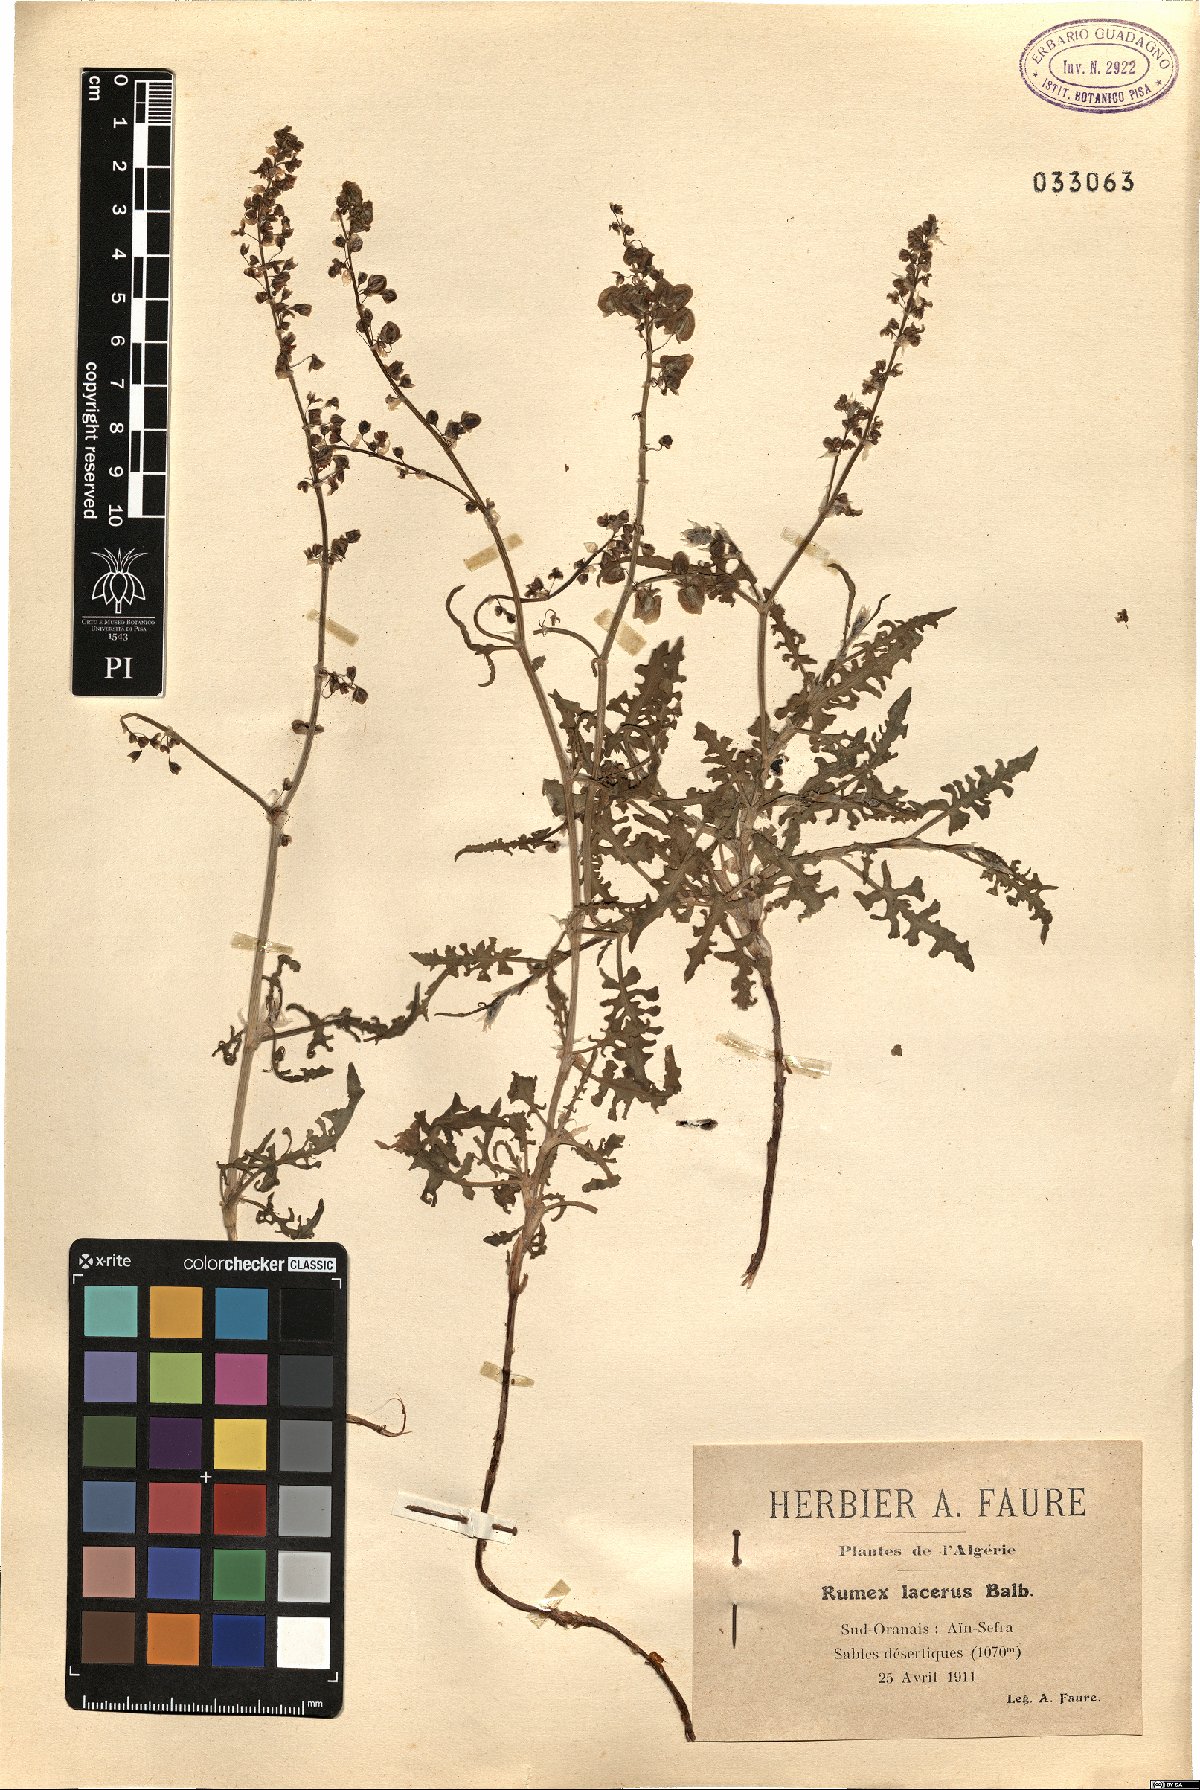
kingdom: Plantae
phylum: Tracheophyta
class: Magnoliopsida
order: Caryophyllales
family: Polygonaceae
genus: Rumex
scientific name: Rumex pictus
